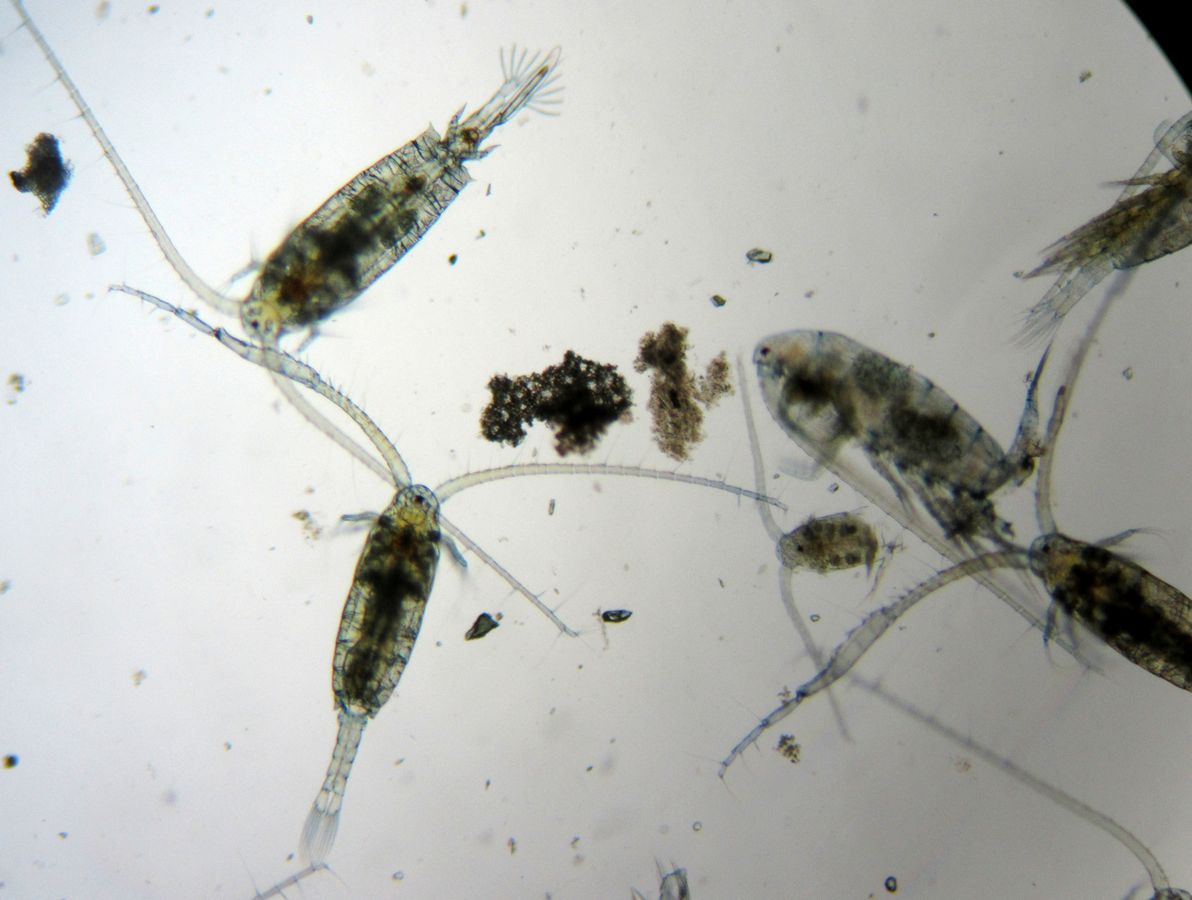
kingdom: Animalia
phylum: Arthropoda
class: Copepoda
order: Calanoida
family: Diaptomidae
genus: Diaptomus
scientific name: Diaptomus zografi
